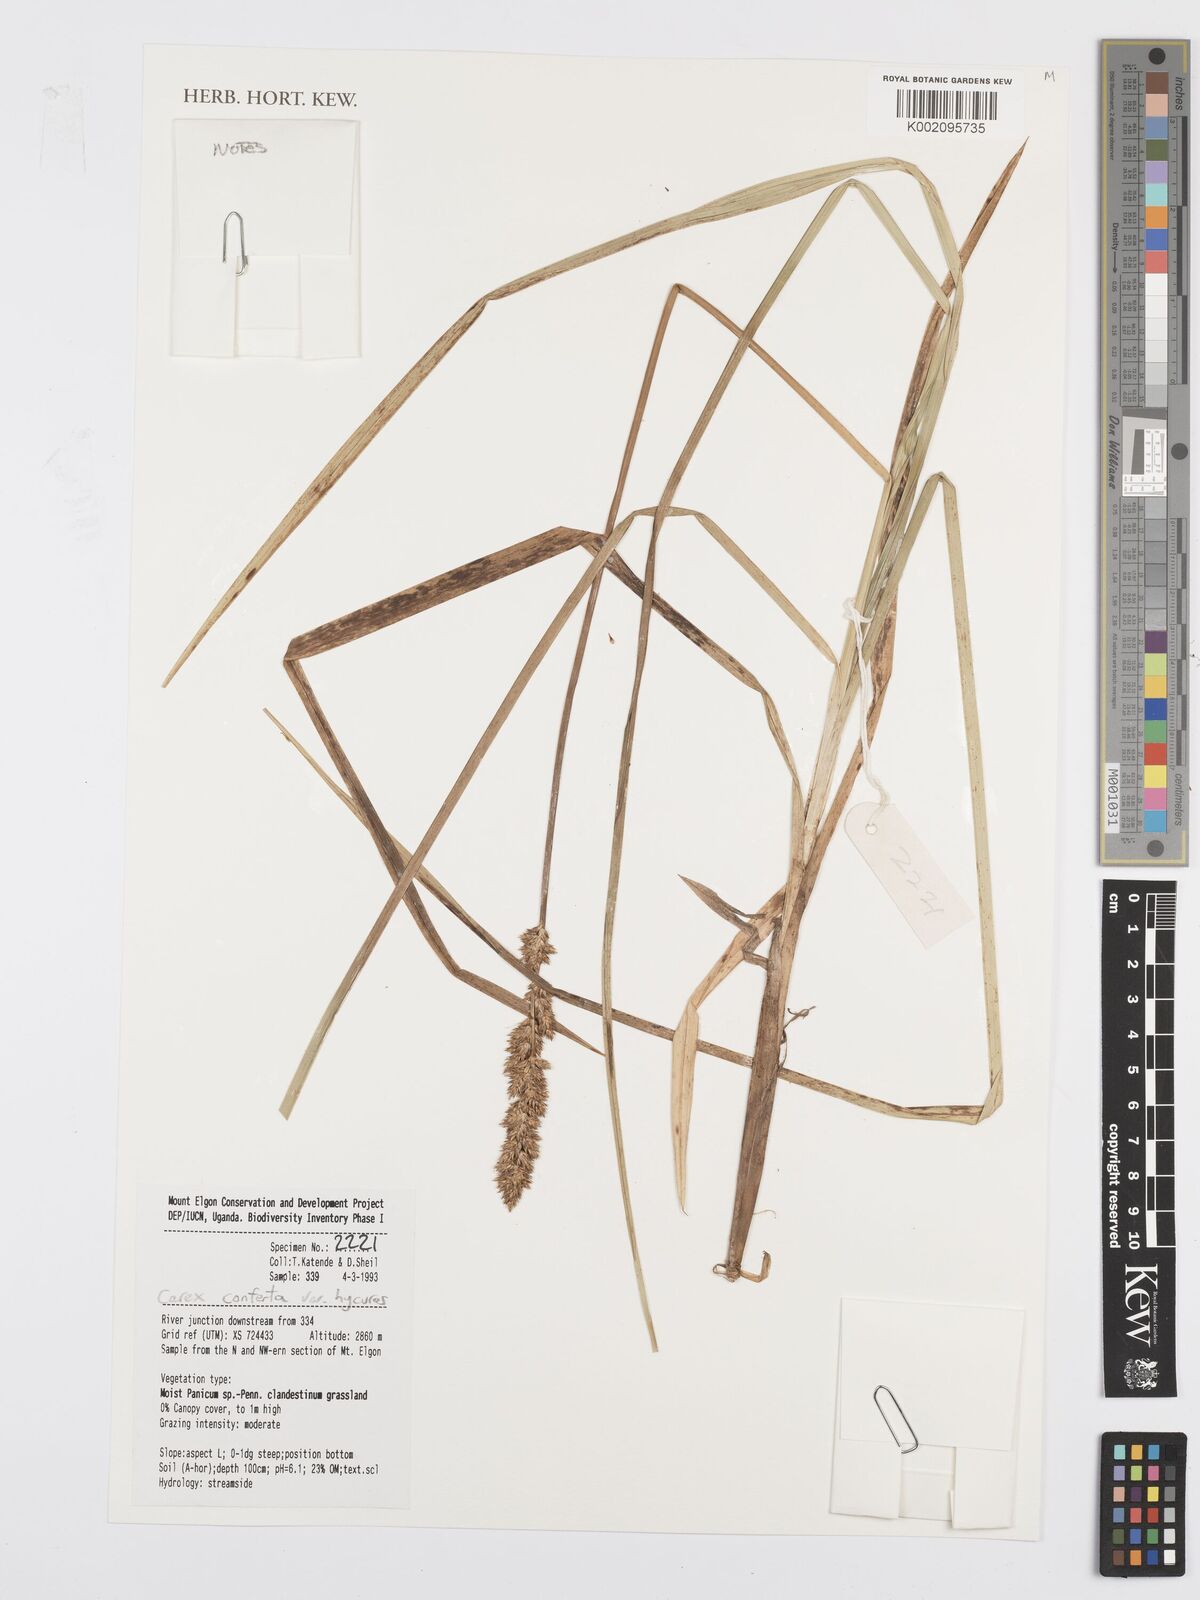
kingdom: Plantae
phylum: Tracheophyta
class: Liliopsida
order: Poales
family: Cyperaceae
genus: Carex
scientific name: Carex lycurus
